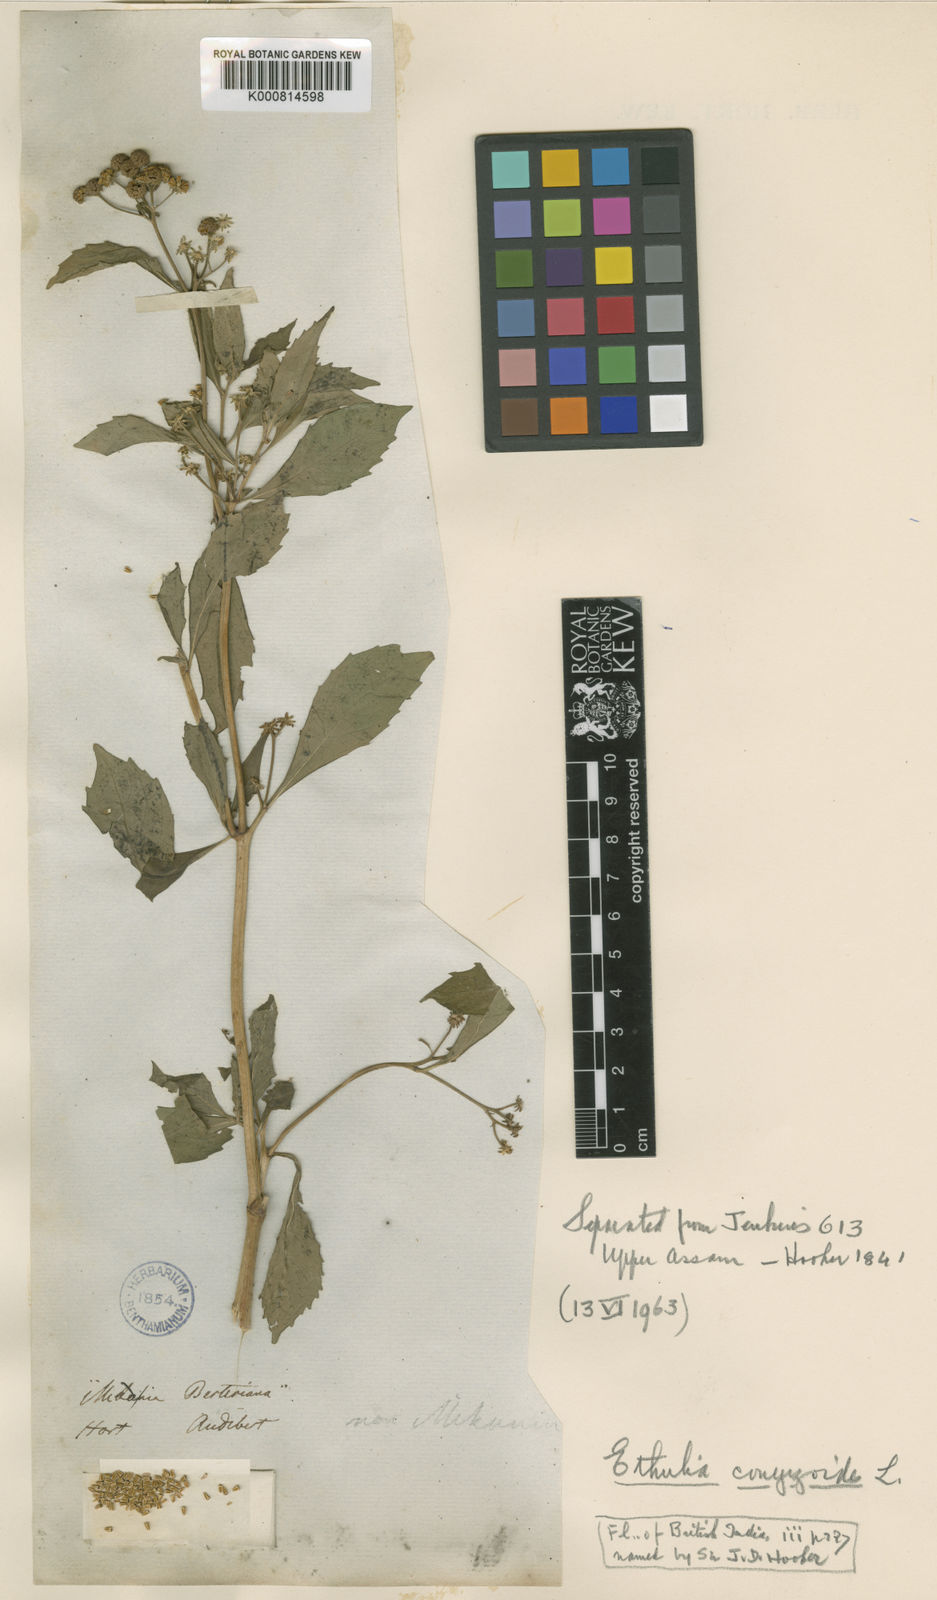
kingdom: Plantae
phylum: Tracheophyta
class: Magnoliopsida
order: Asterales
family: Asteraceae
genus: Ethulia
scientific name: Ethulia conyzoides
